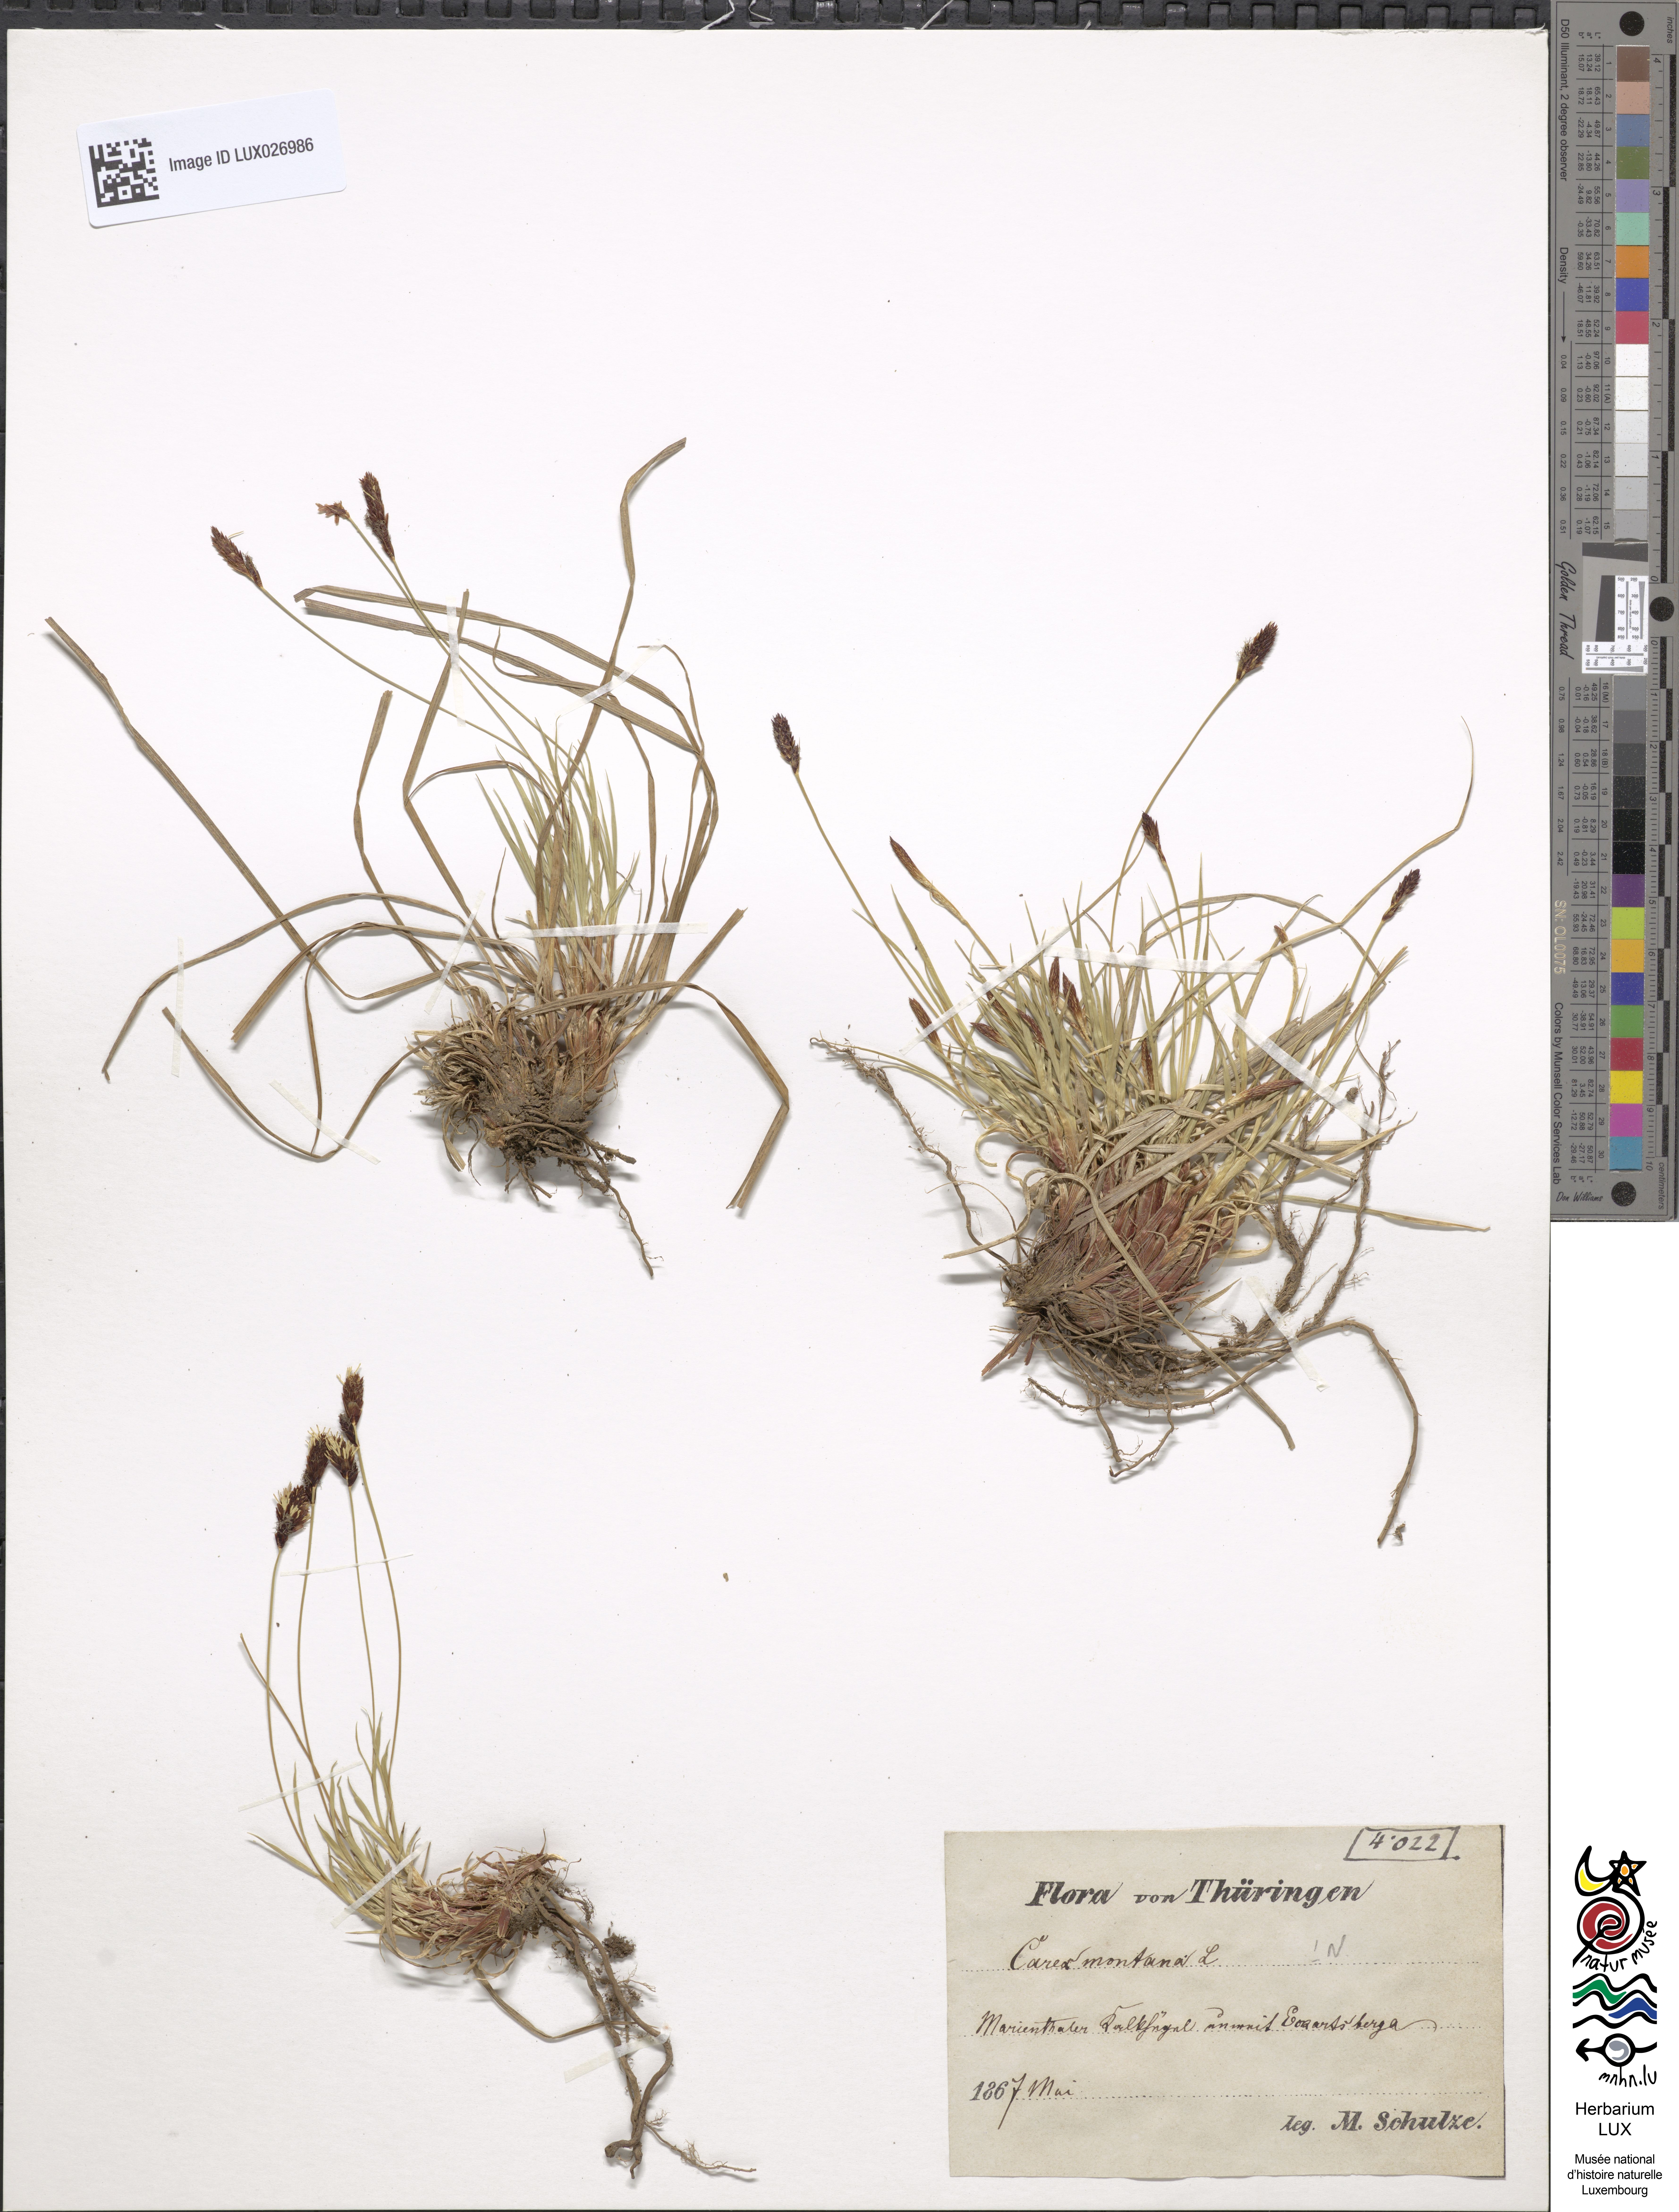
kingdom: Plantae
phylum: Tracheophyta
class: Liliopsida
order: Poales
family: Cyperaceae
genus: Carex
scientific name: Carex montana
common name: Soft-leaved sedge
